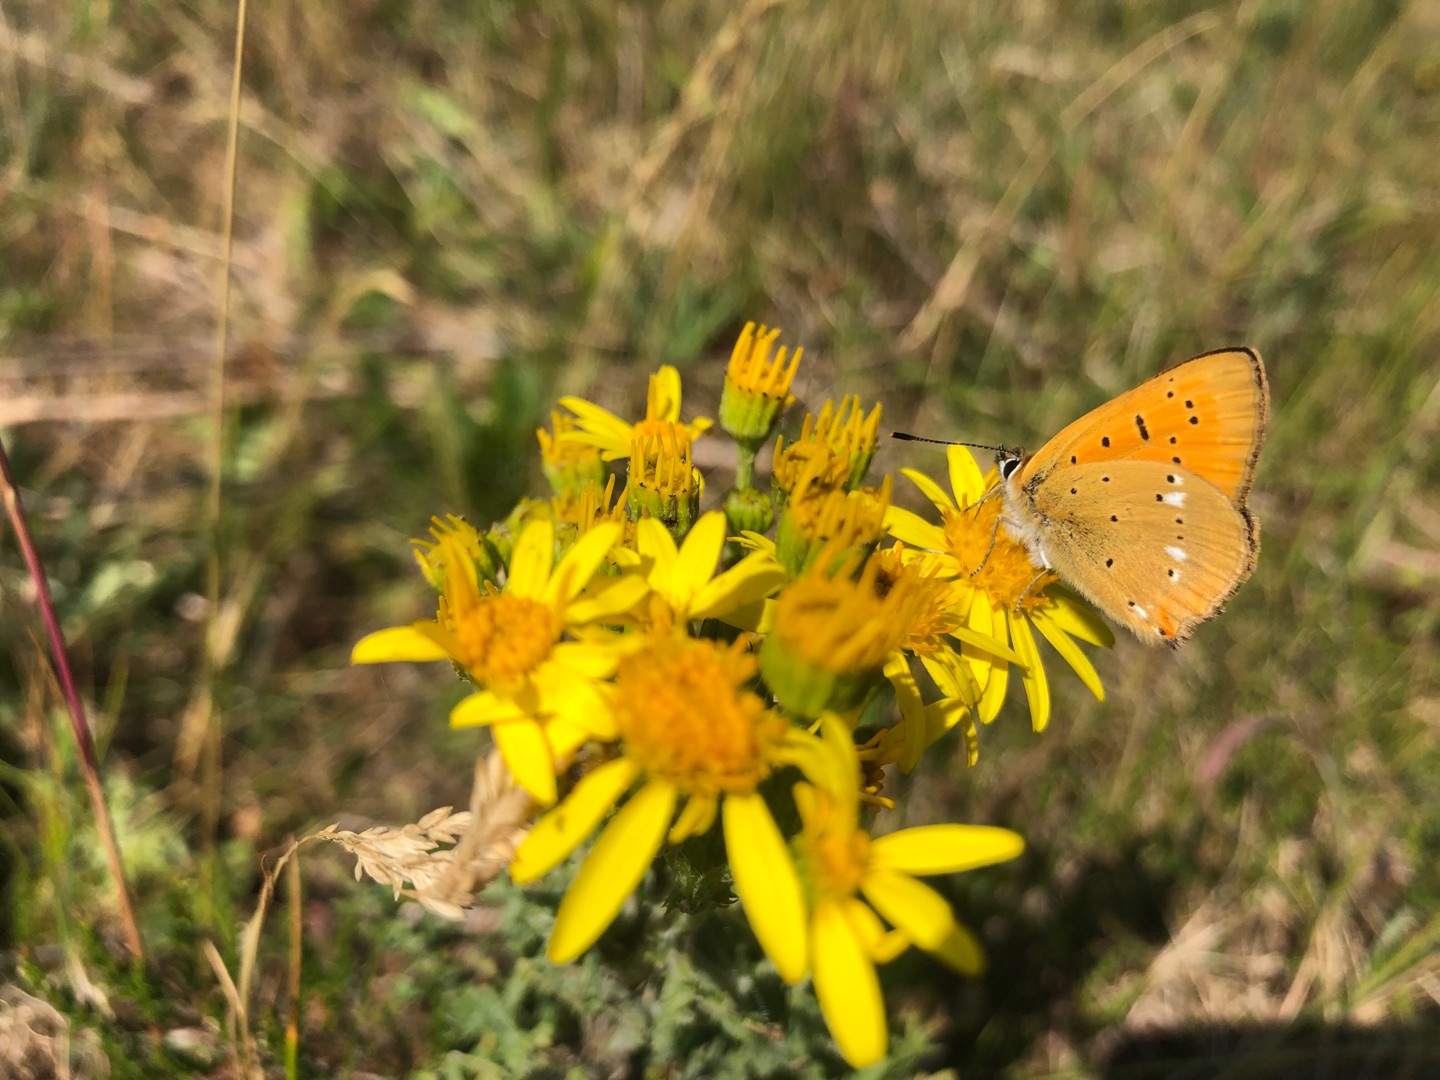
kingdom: Animalia
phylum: Arthropoda
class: Insecta
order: Lepidoptera
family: Lycaenidae
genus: Lycaena
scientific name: Lycaena virgaureae
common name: Dukatsommerfugl
